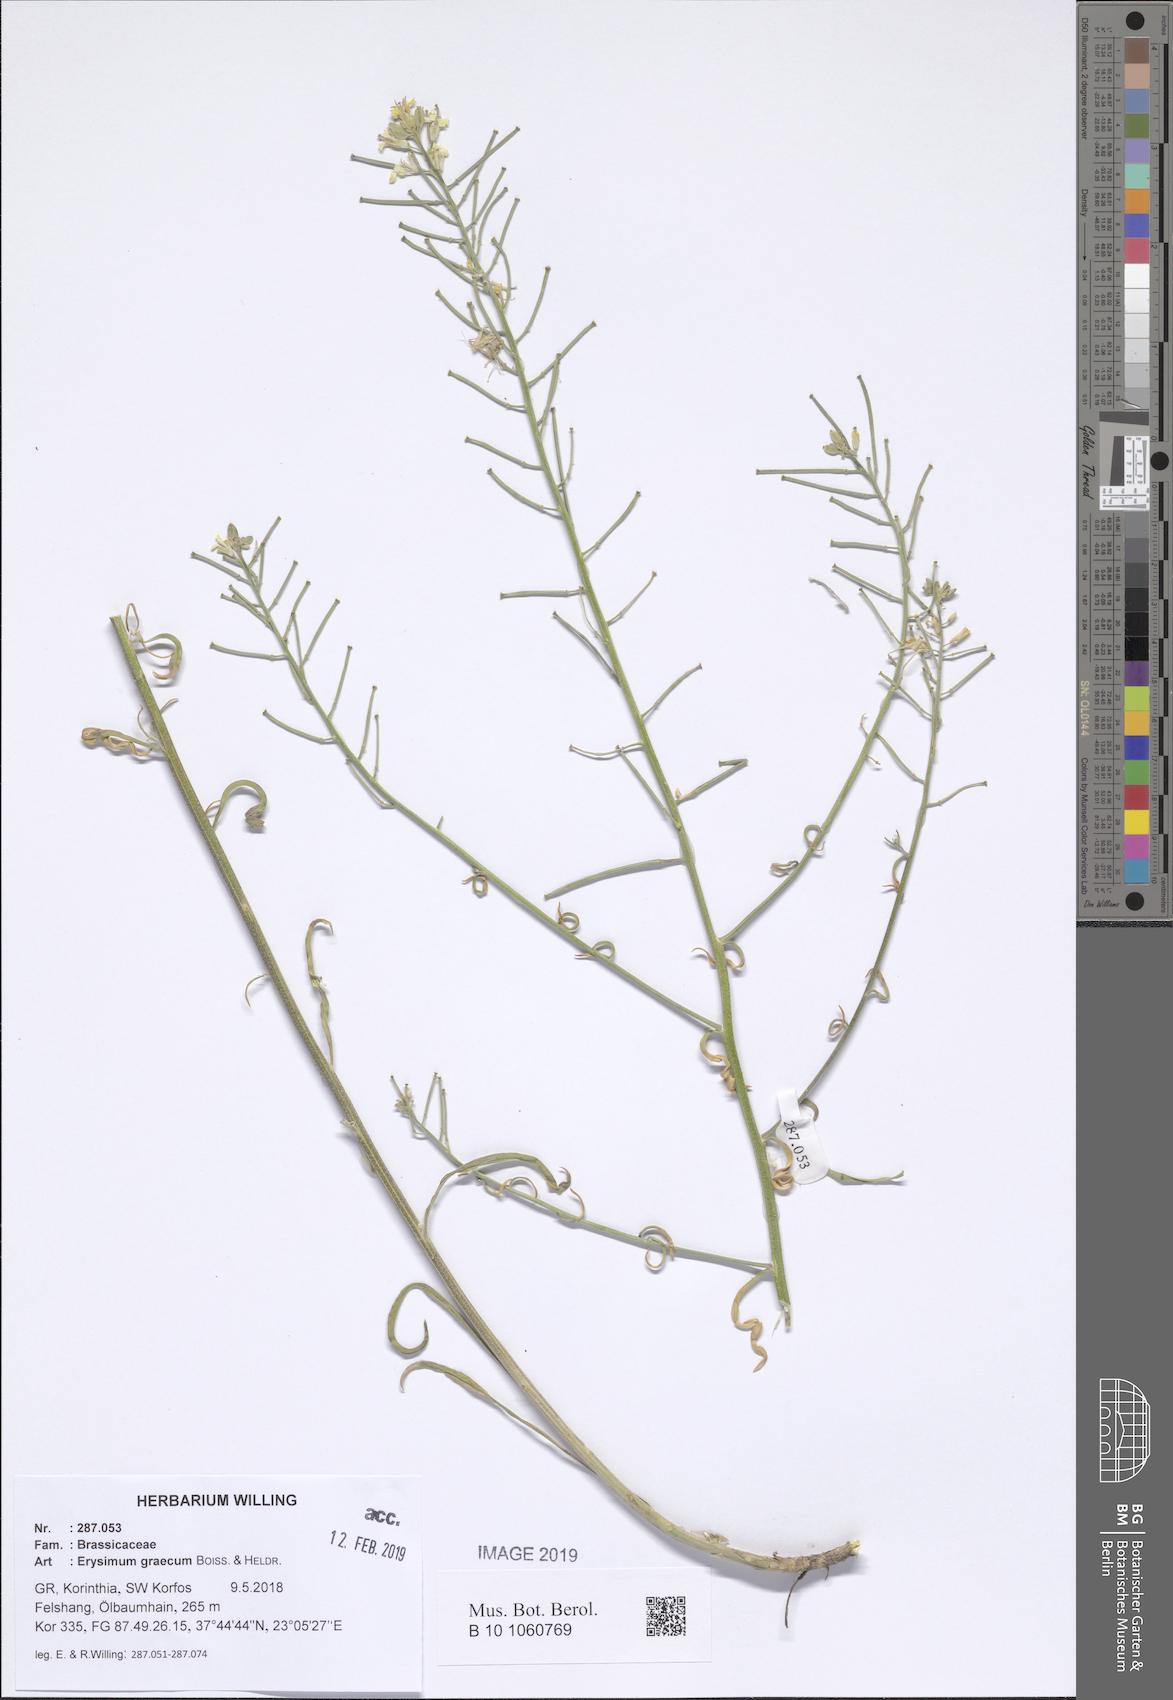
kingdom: Plantae
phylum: Tracheophyta
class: Magnoliopsida
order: Brassicales
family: Brassicaceae
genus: Erysimum
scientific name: Erysimum graecum
